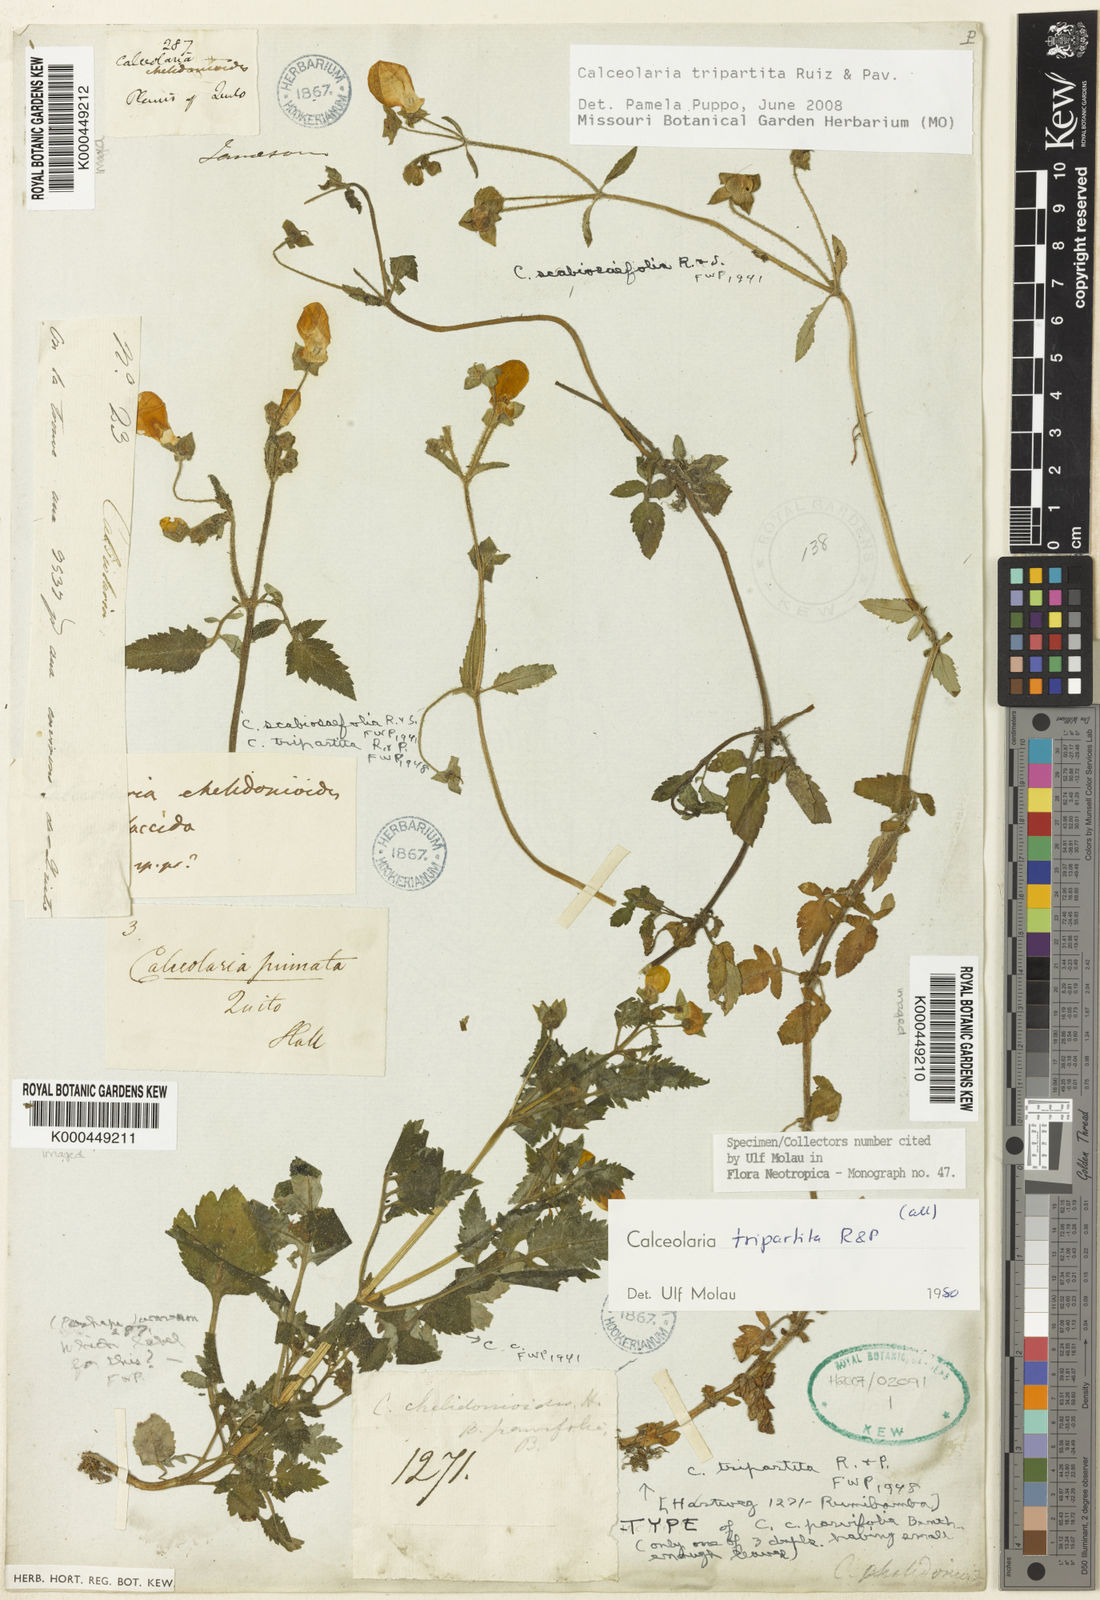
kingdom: Plantae
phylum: Tracheophyta
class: Magnoliopsida
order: Lamiales
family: Calceolariaceae
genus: Calceolaria
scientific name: Calceolaria tripartita
